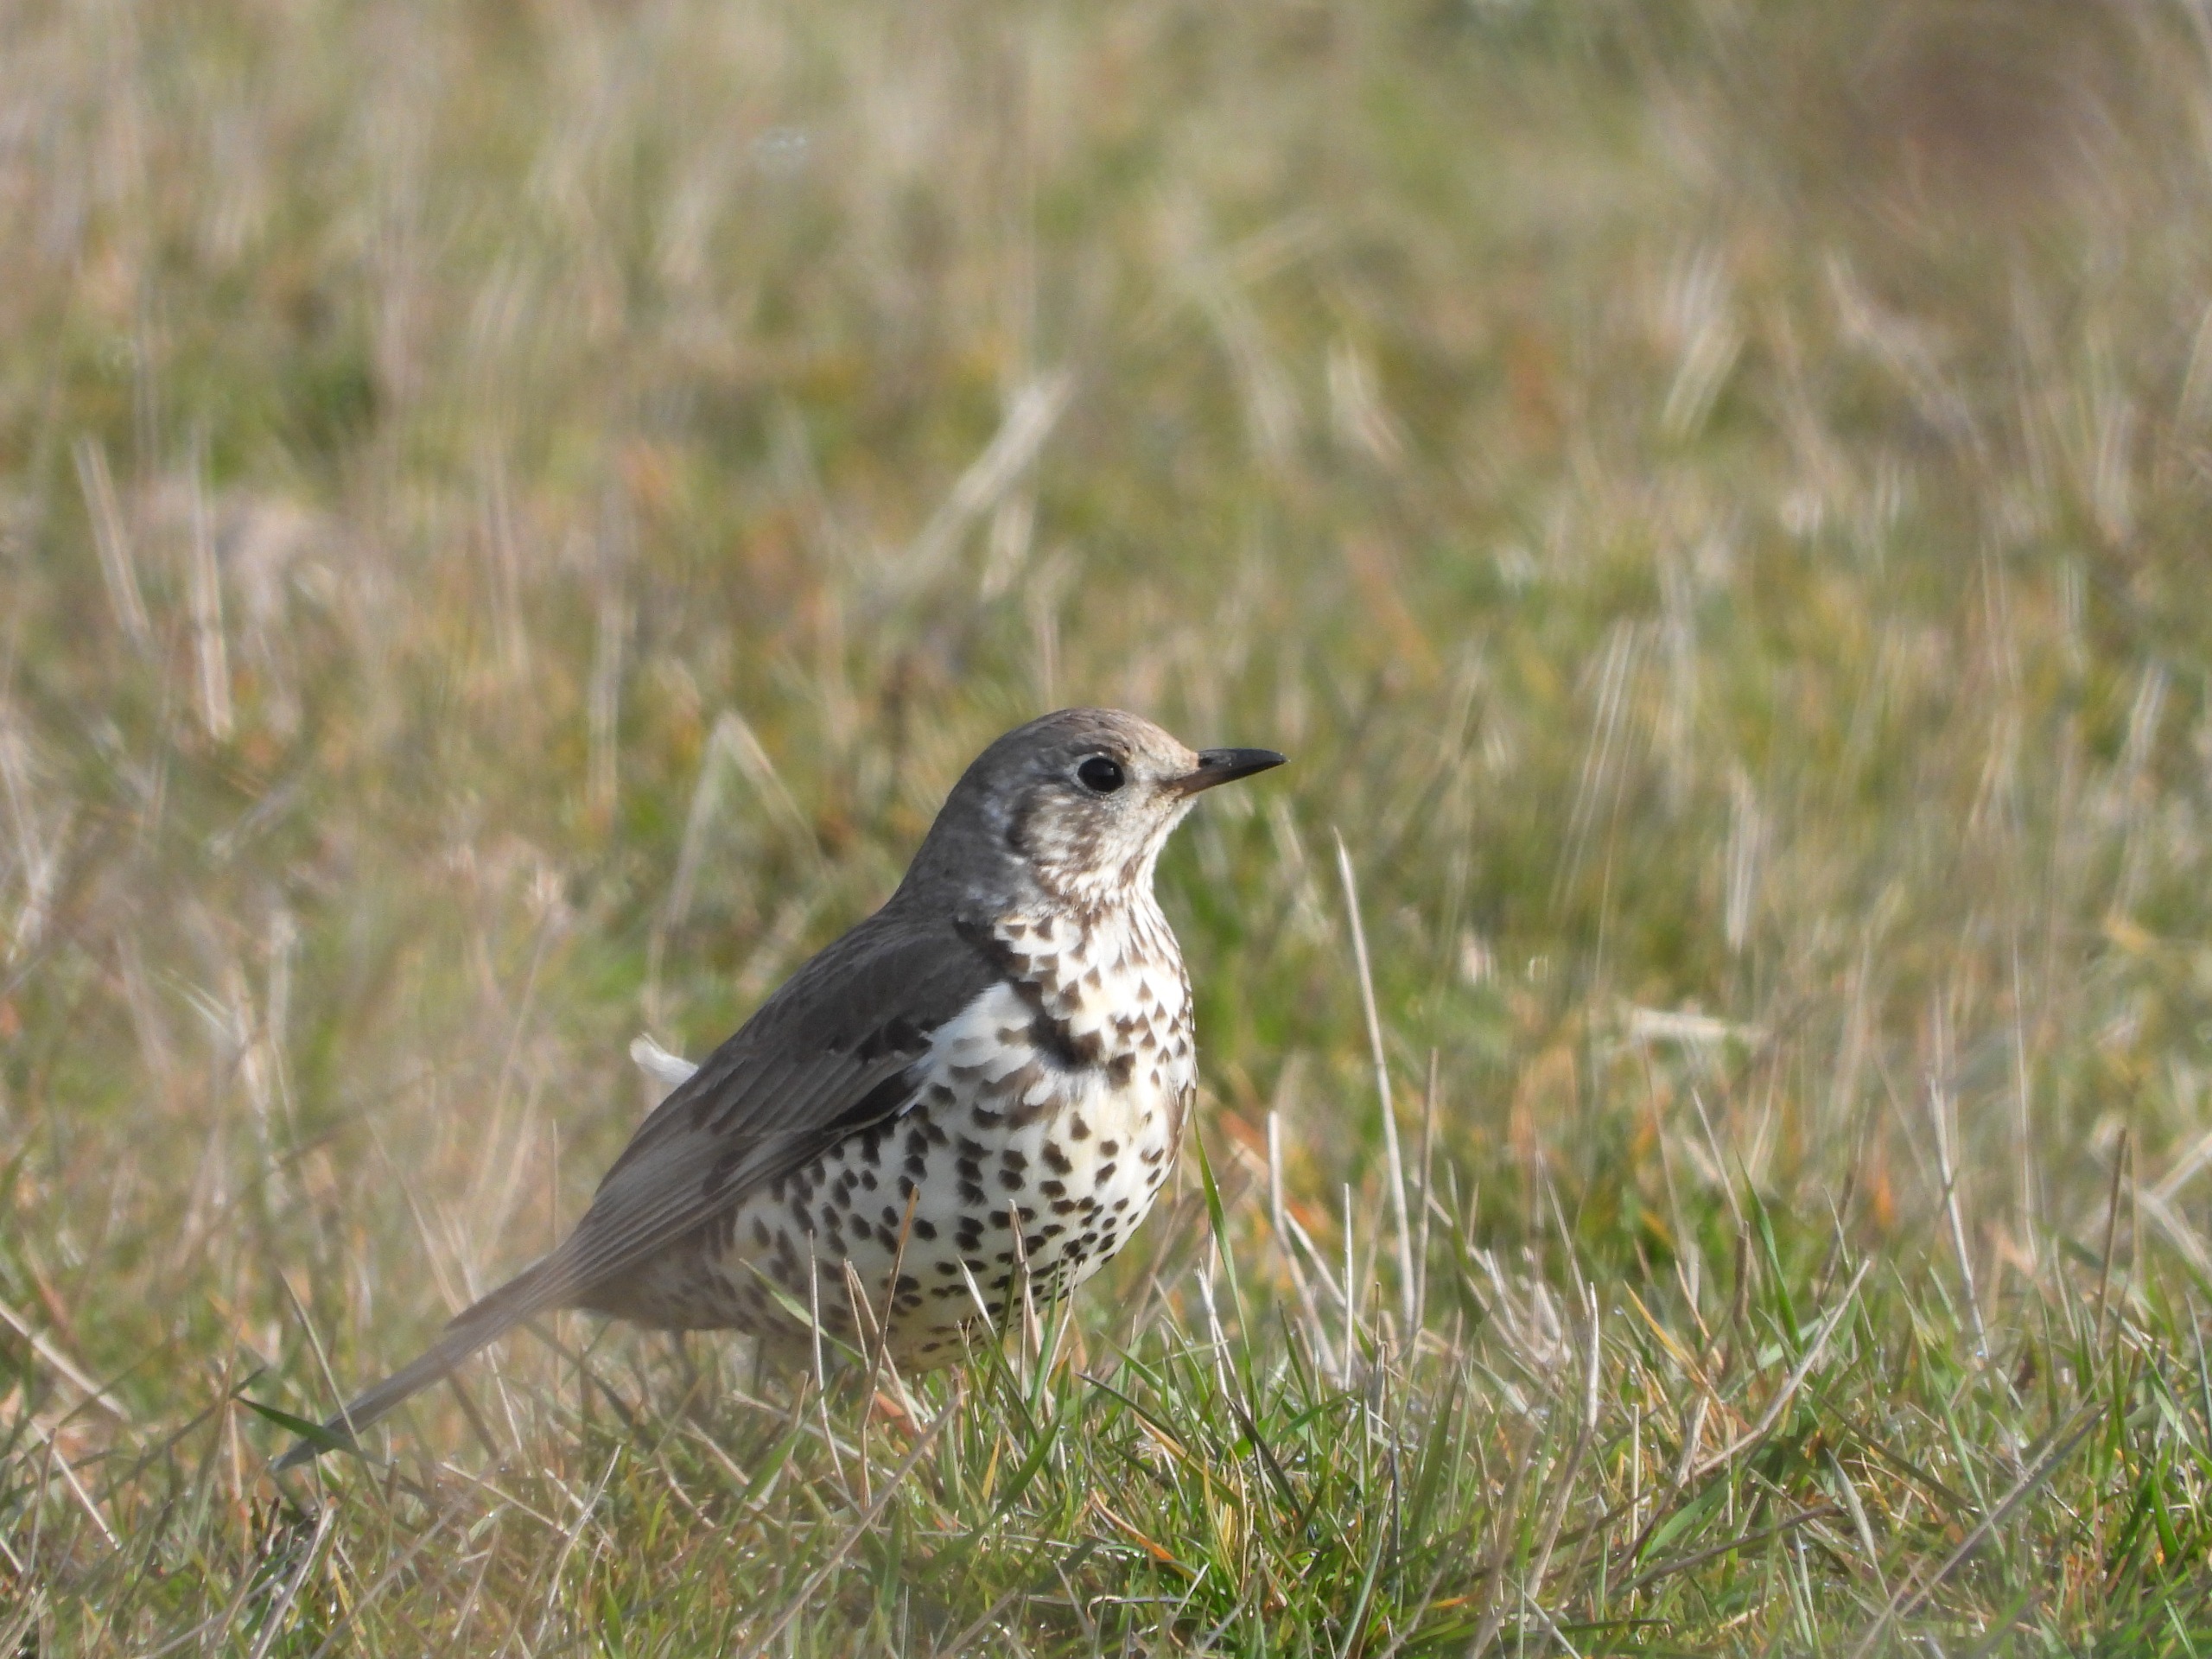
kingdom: Animalia
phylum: Chordata
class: Aves
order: Passeriformes
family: Turdidae
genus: Turdus
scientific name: Turdus viscivorus
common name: Misteldrossel
